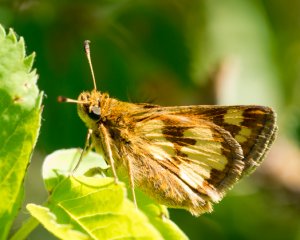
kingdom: Animalia
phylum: Arthropoda
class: Insecta
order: Lepidoptera
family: Hesperiidae
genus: Polites
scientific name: Polites coras
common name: Peck's Skipper
